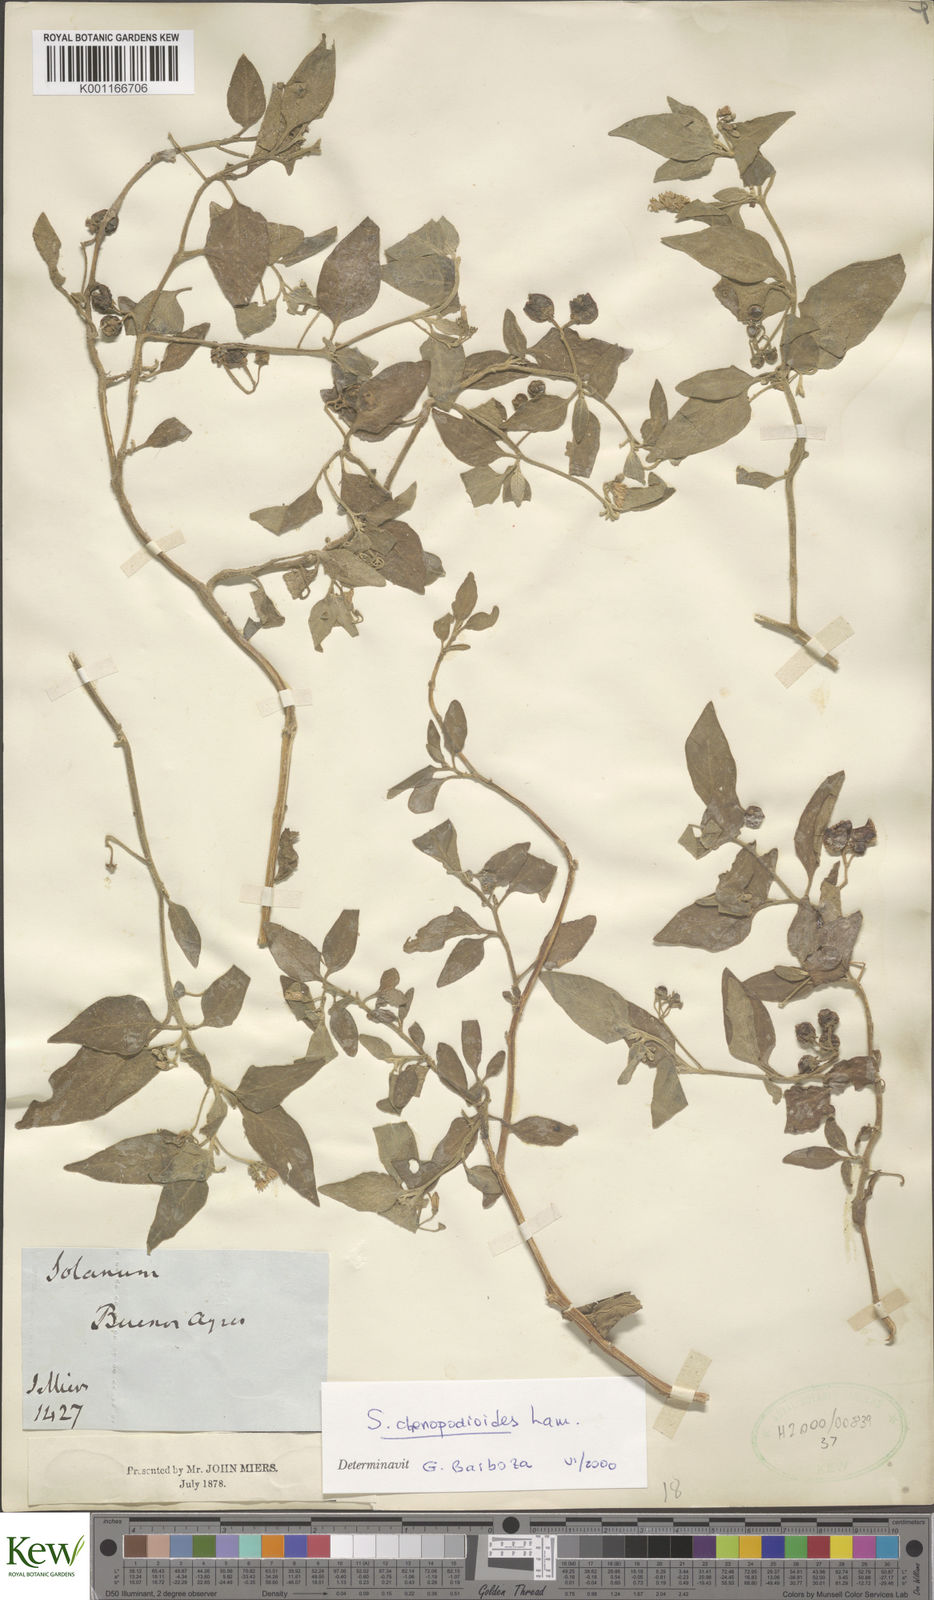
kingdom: Plantae
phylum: Tracheophyta
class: Magnoliopsida
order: Solanales
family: Solanaceae
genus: Solanum
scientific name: Solanum chenopodioides
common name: Tall nightshade
